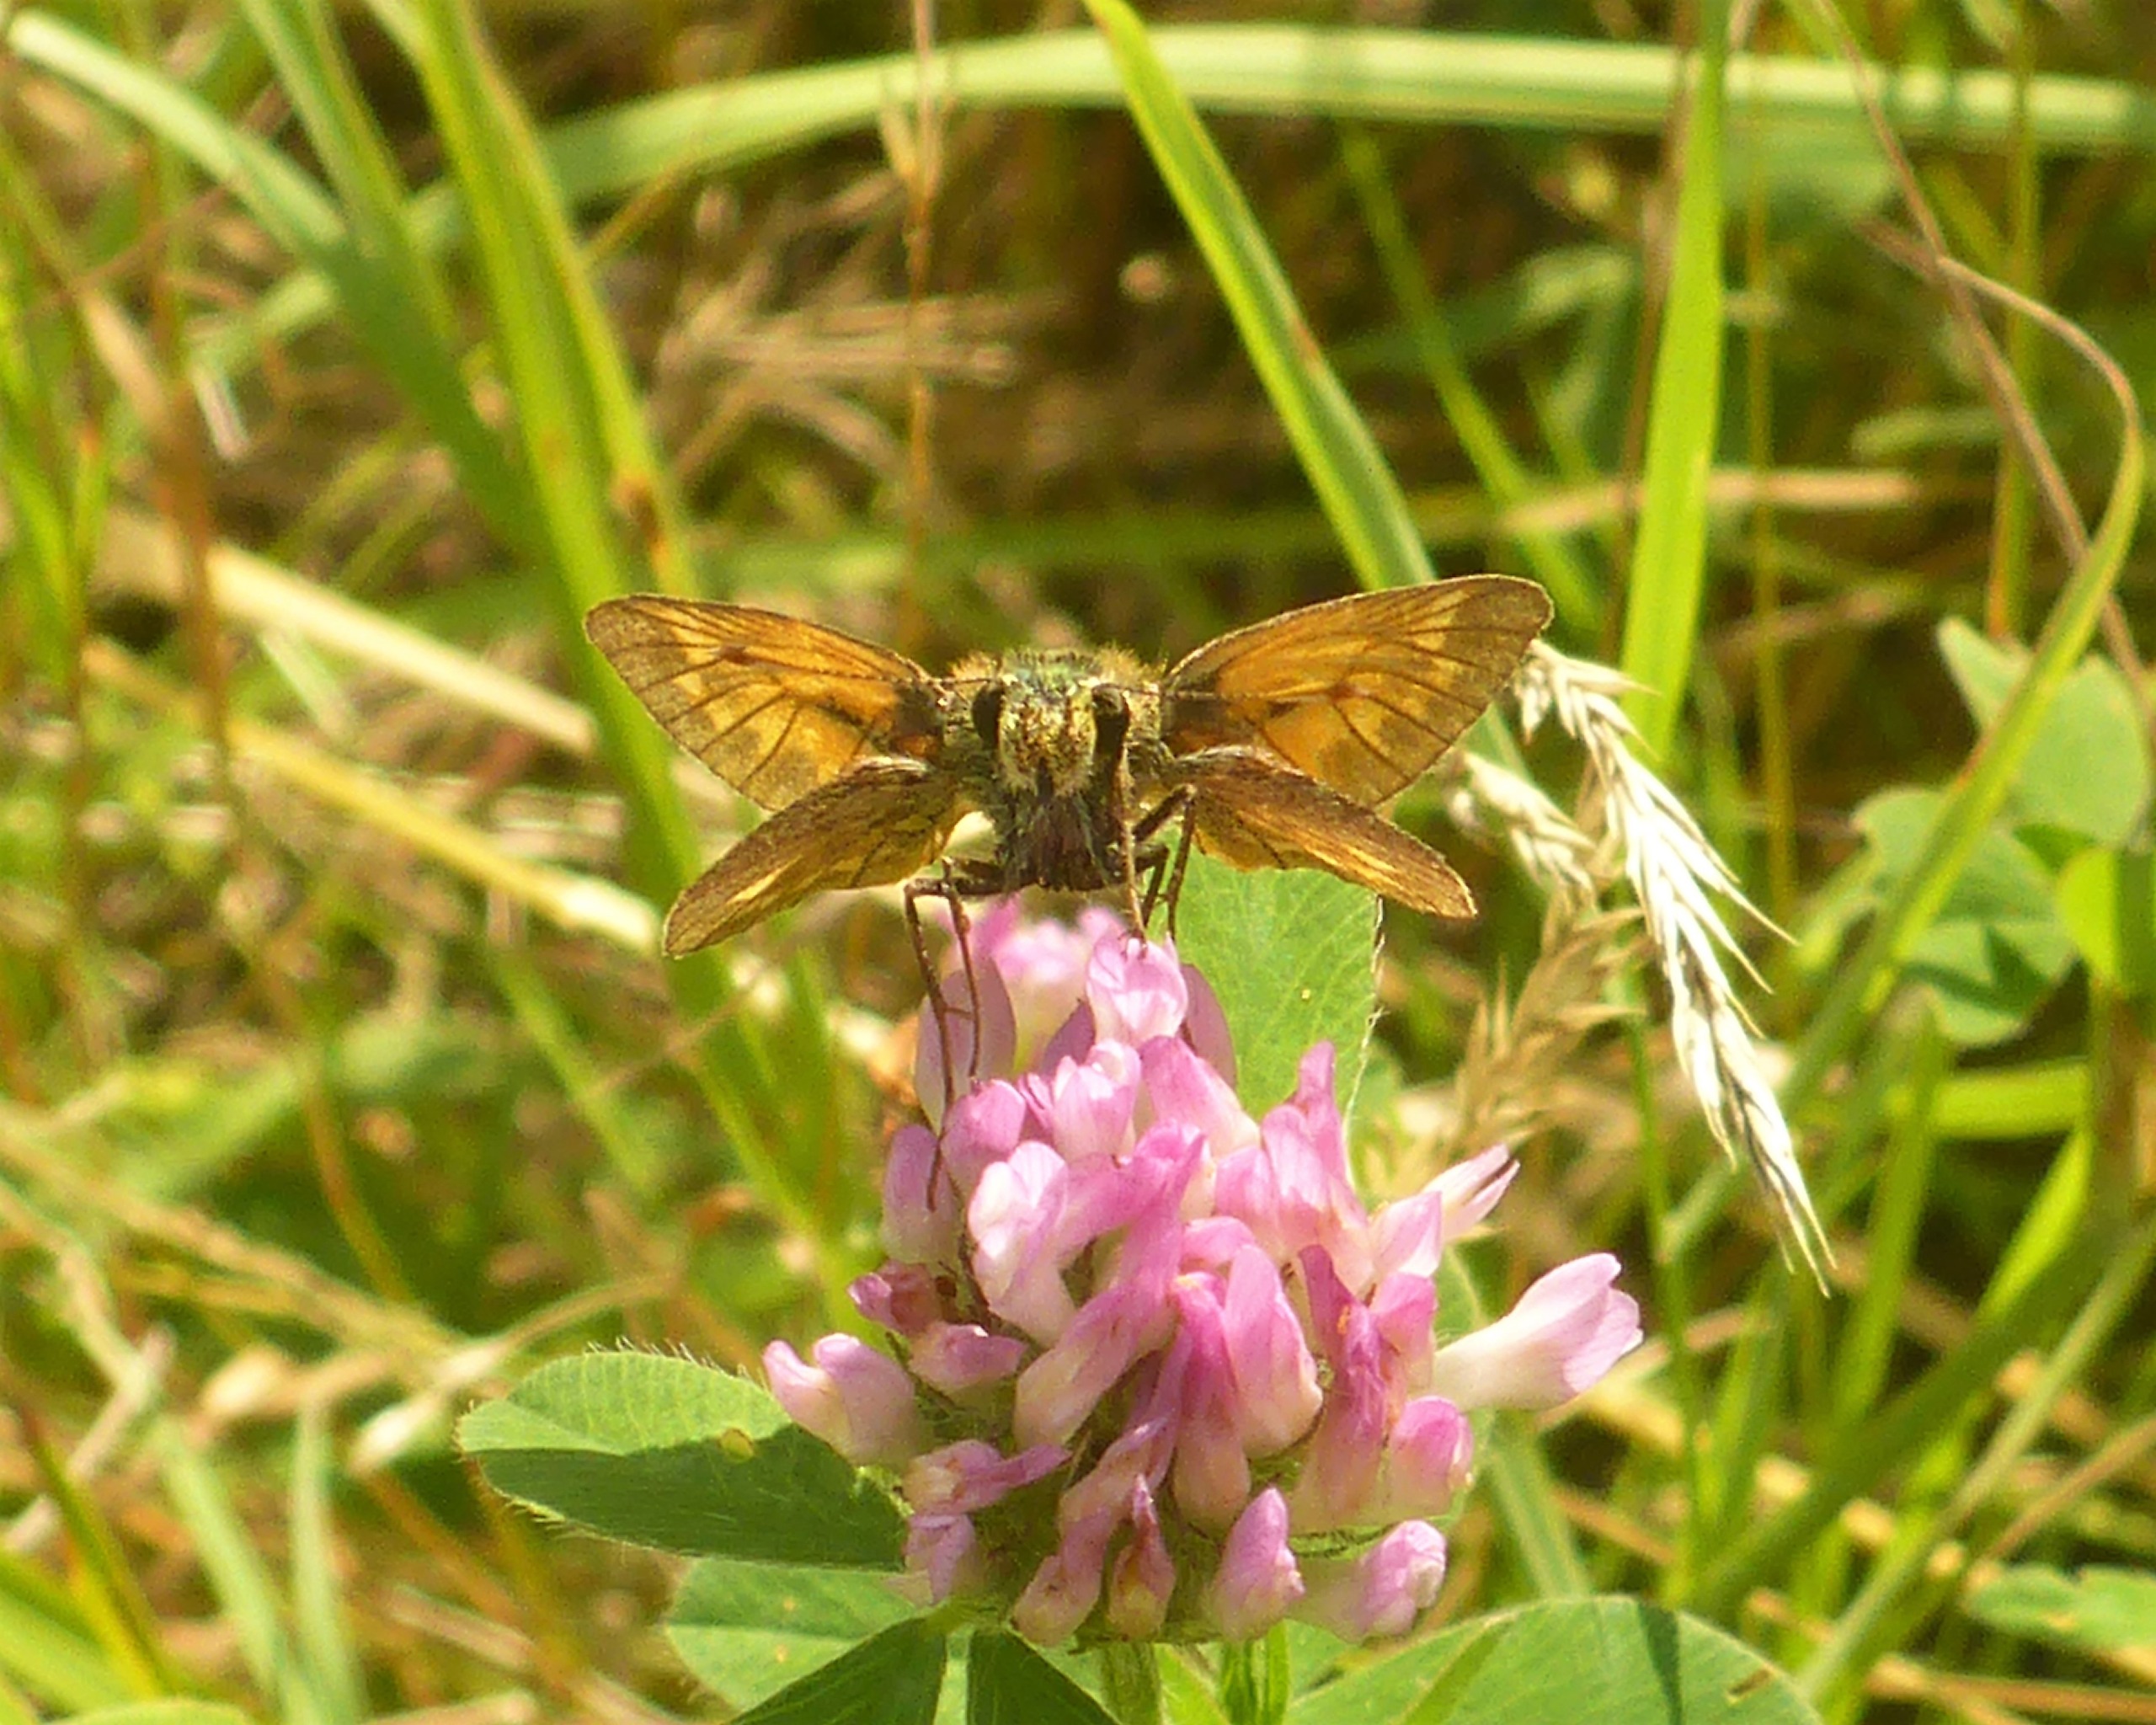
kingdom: Animalia
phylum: Arthropoda
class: Insecta
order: Lepidoptera
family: Hesperiidae
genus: Ochlodes
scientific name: Ochlodes venata
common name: Stor bredpande
